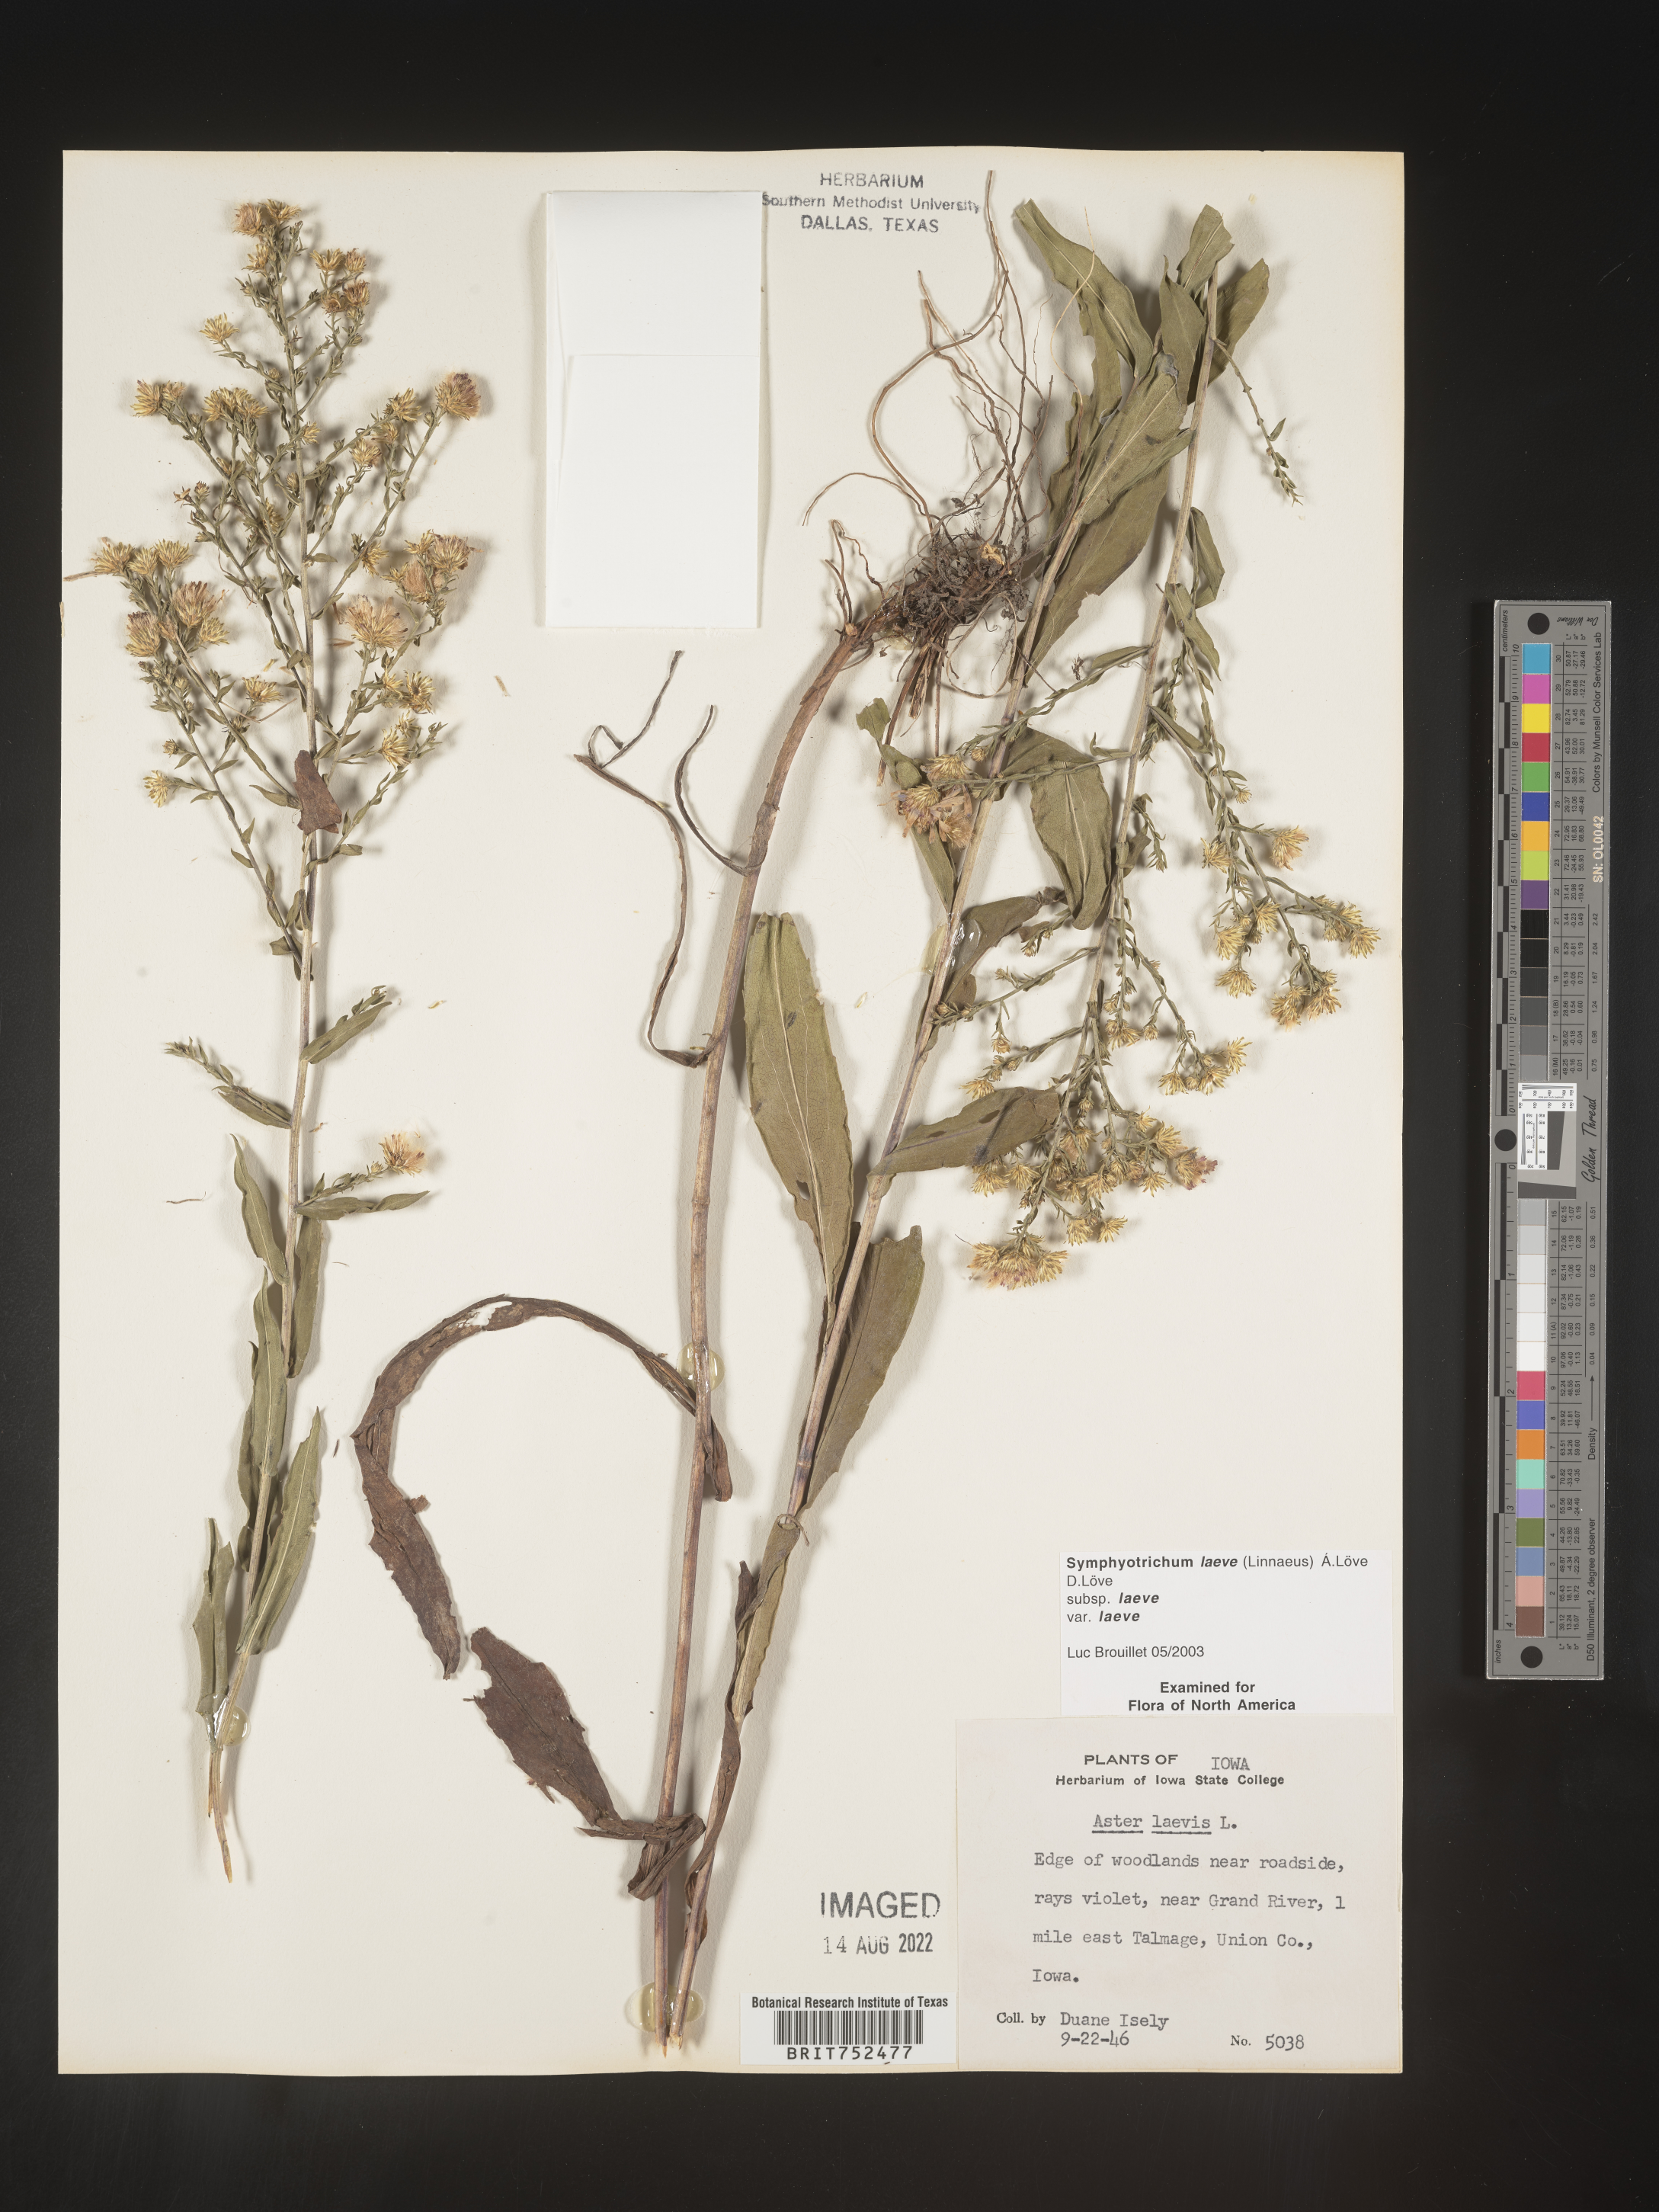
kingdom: Plantae
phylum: Tracheophyta
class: Magnoliopsida
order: Asterales
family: Asteraceae
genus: Symphyotrichum
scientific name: Symphyotrichum laeve
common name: Glaucous aster
